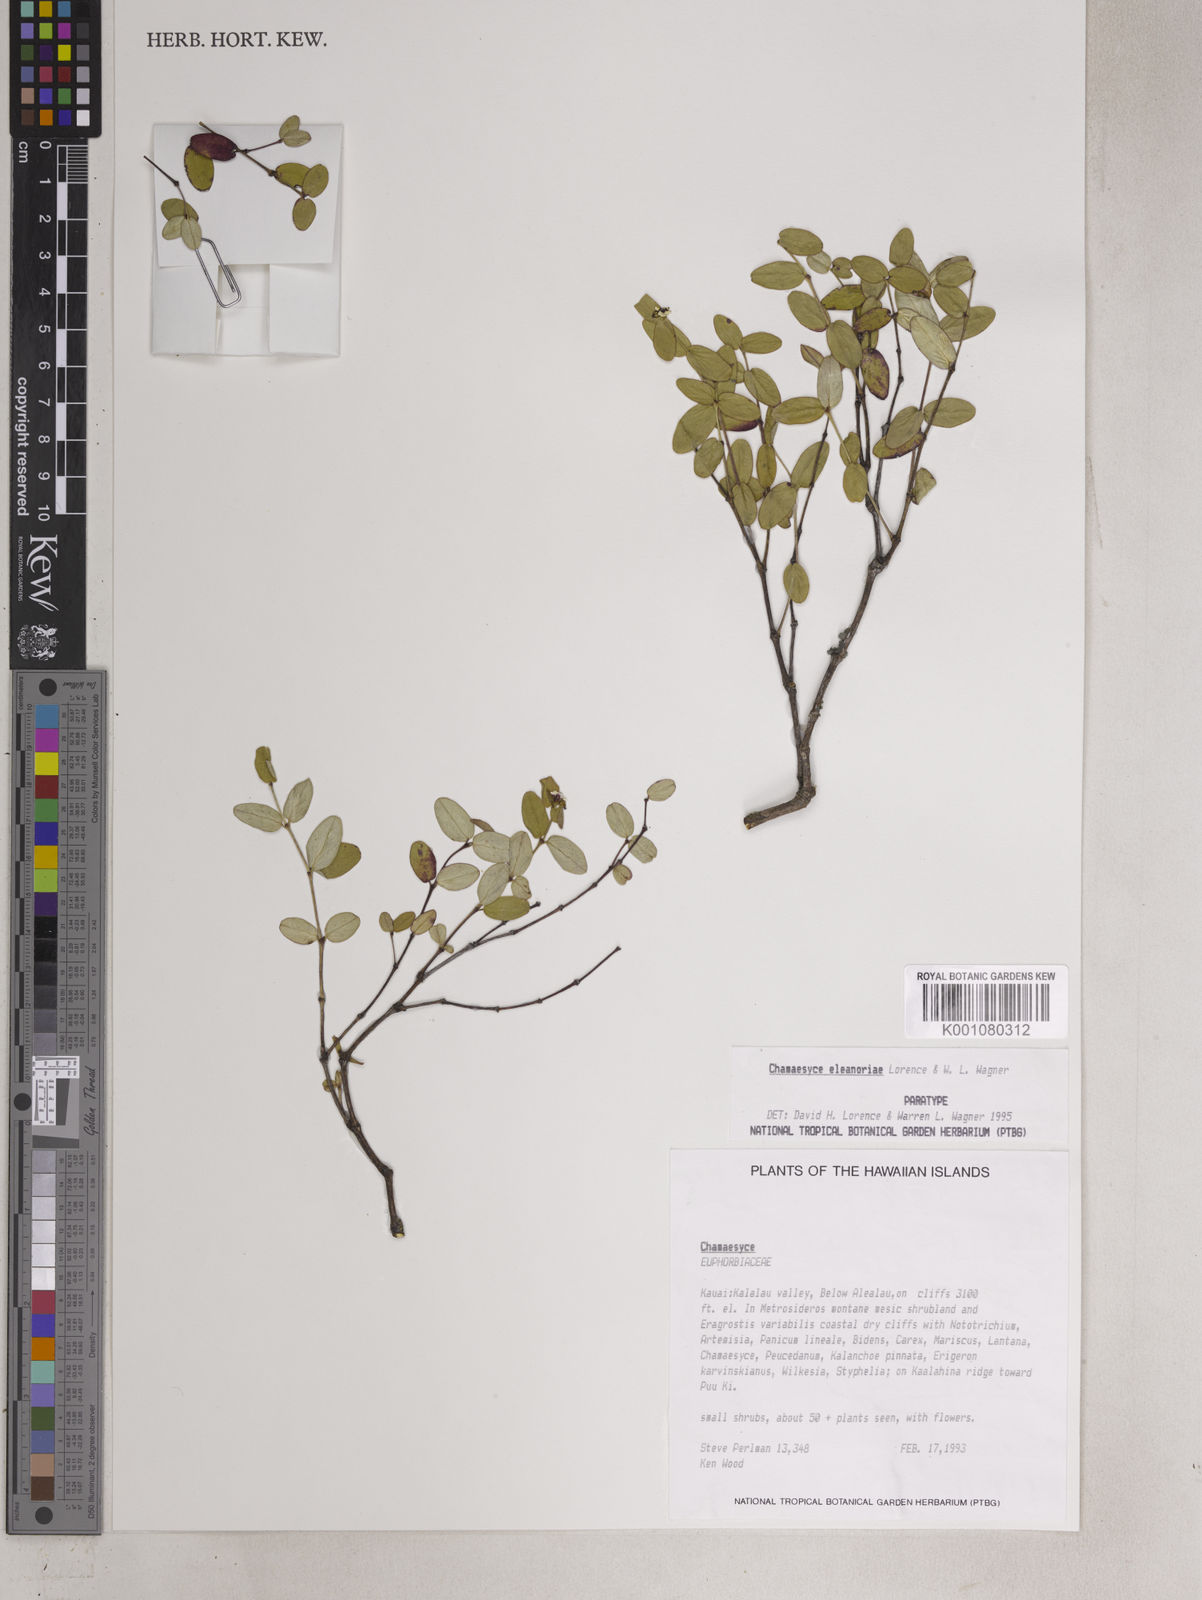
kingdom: Plantae
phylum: Tracheophyta
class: Magnoliopsida
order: Malpighiales
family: Euphorbiaceae
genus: Euphorbia
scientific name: Euphorbia eleanoriae
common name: Na pali sandmat
